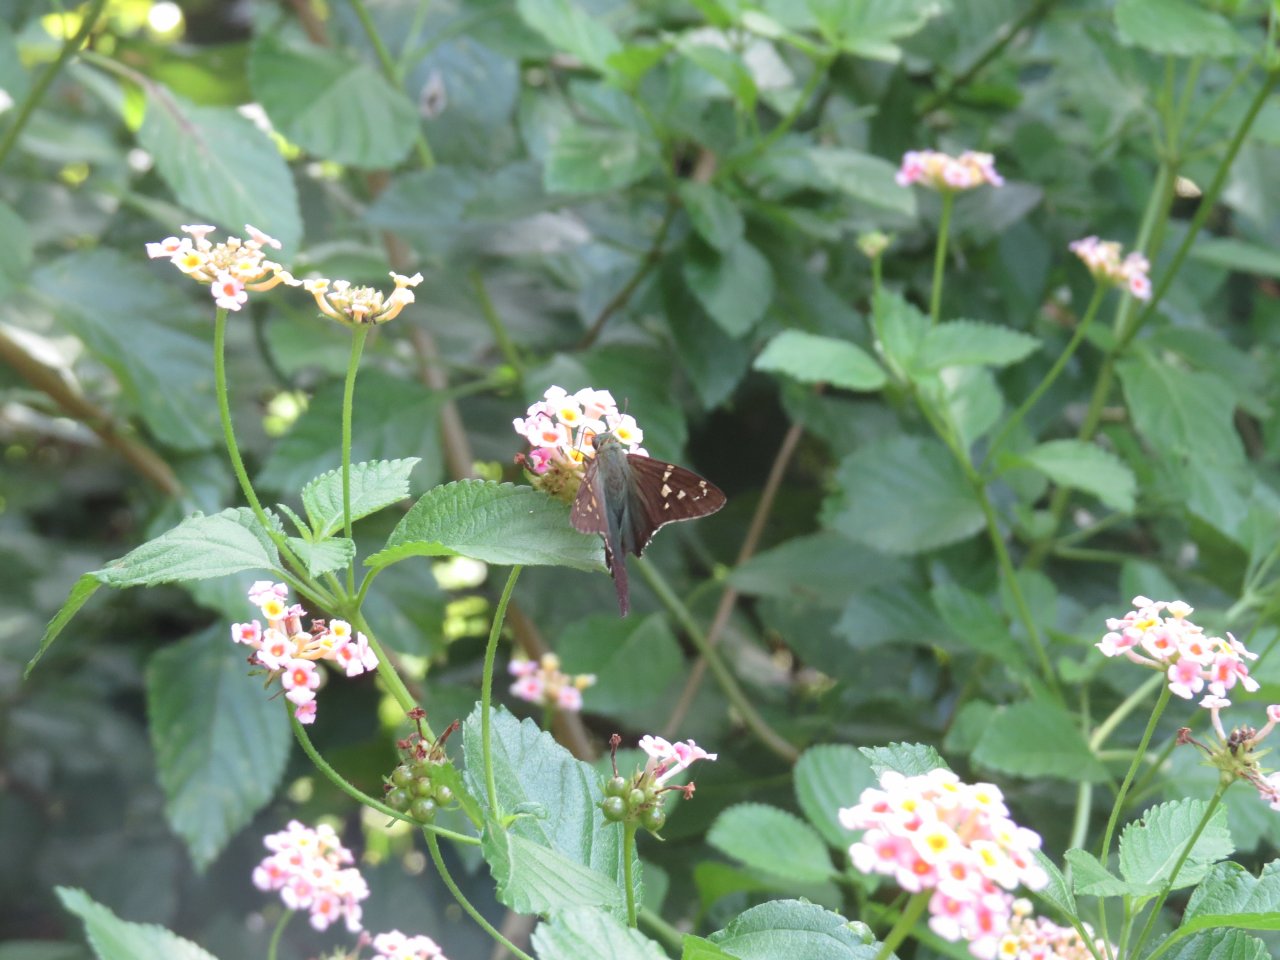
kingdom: Animalia
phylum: Arthropoda
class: Insecta
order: Lepidoptera
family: Hesperiidae
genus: Urbanus
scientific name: Urbanus proteus
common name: Long-tailed Skipper
